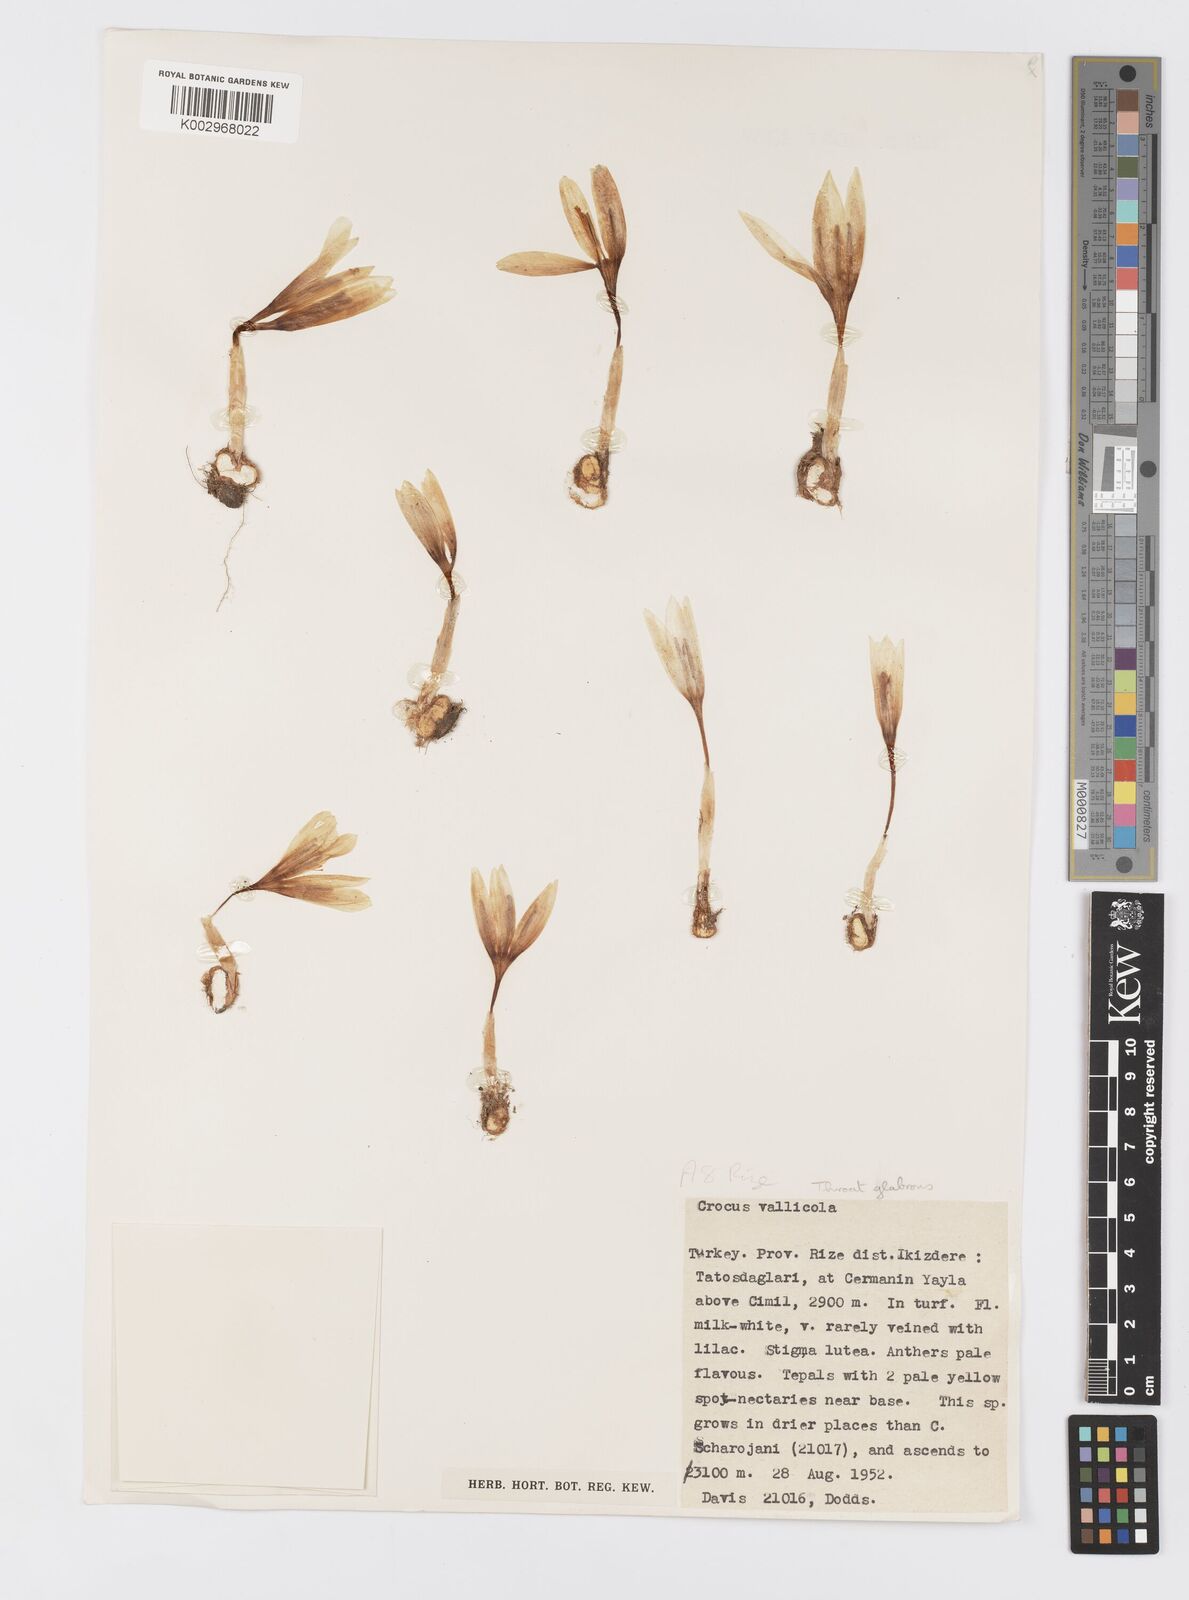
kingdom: Plantae
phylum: Tracheophyta
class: Liliopsida
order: Asparagales
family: Iridaceae
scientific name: Iridaceae
